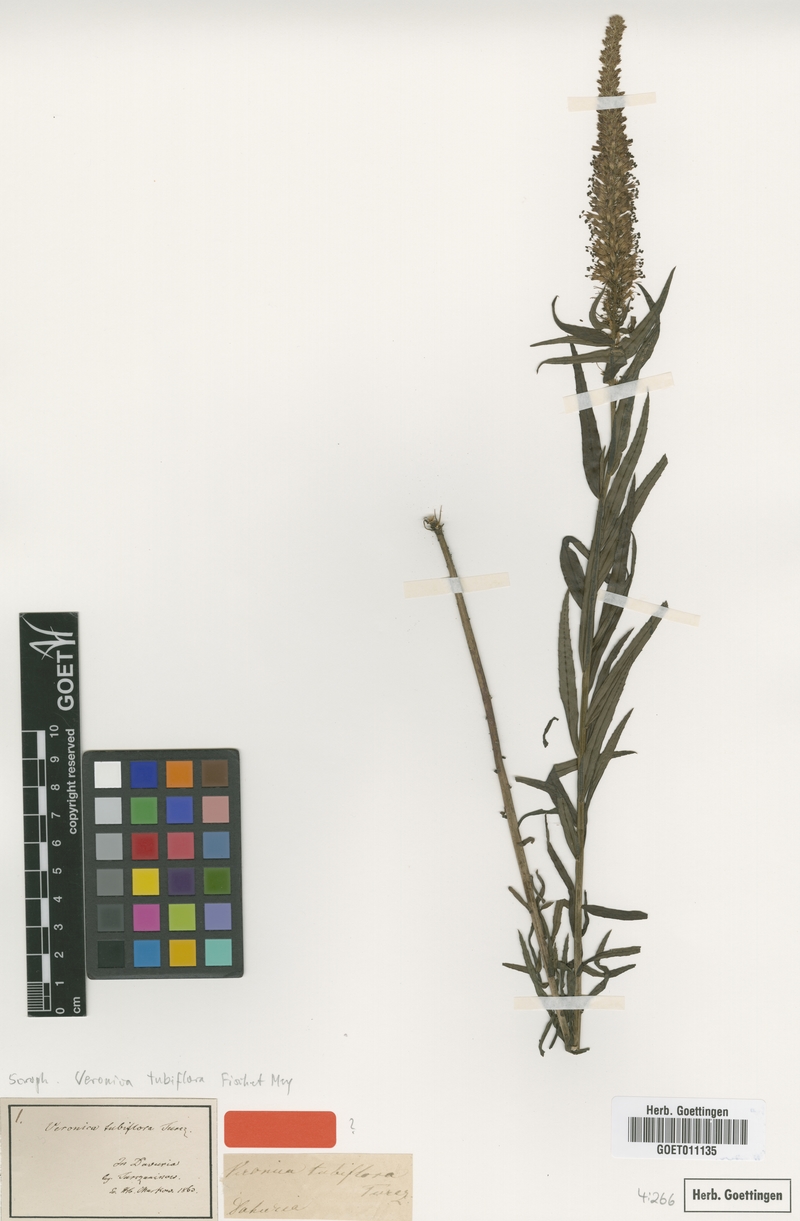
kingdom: Plantae
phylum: Tracheophyta
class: Magnoliopsida
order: Lamiales
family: Plantaginaceae
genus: Veronicastrum
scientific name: Veronicastrum tubiflorum
